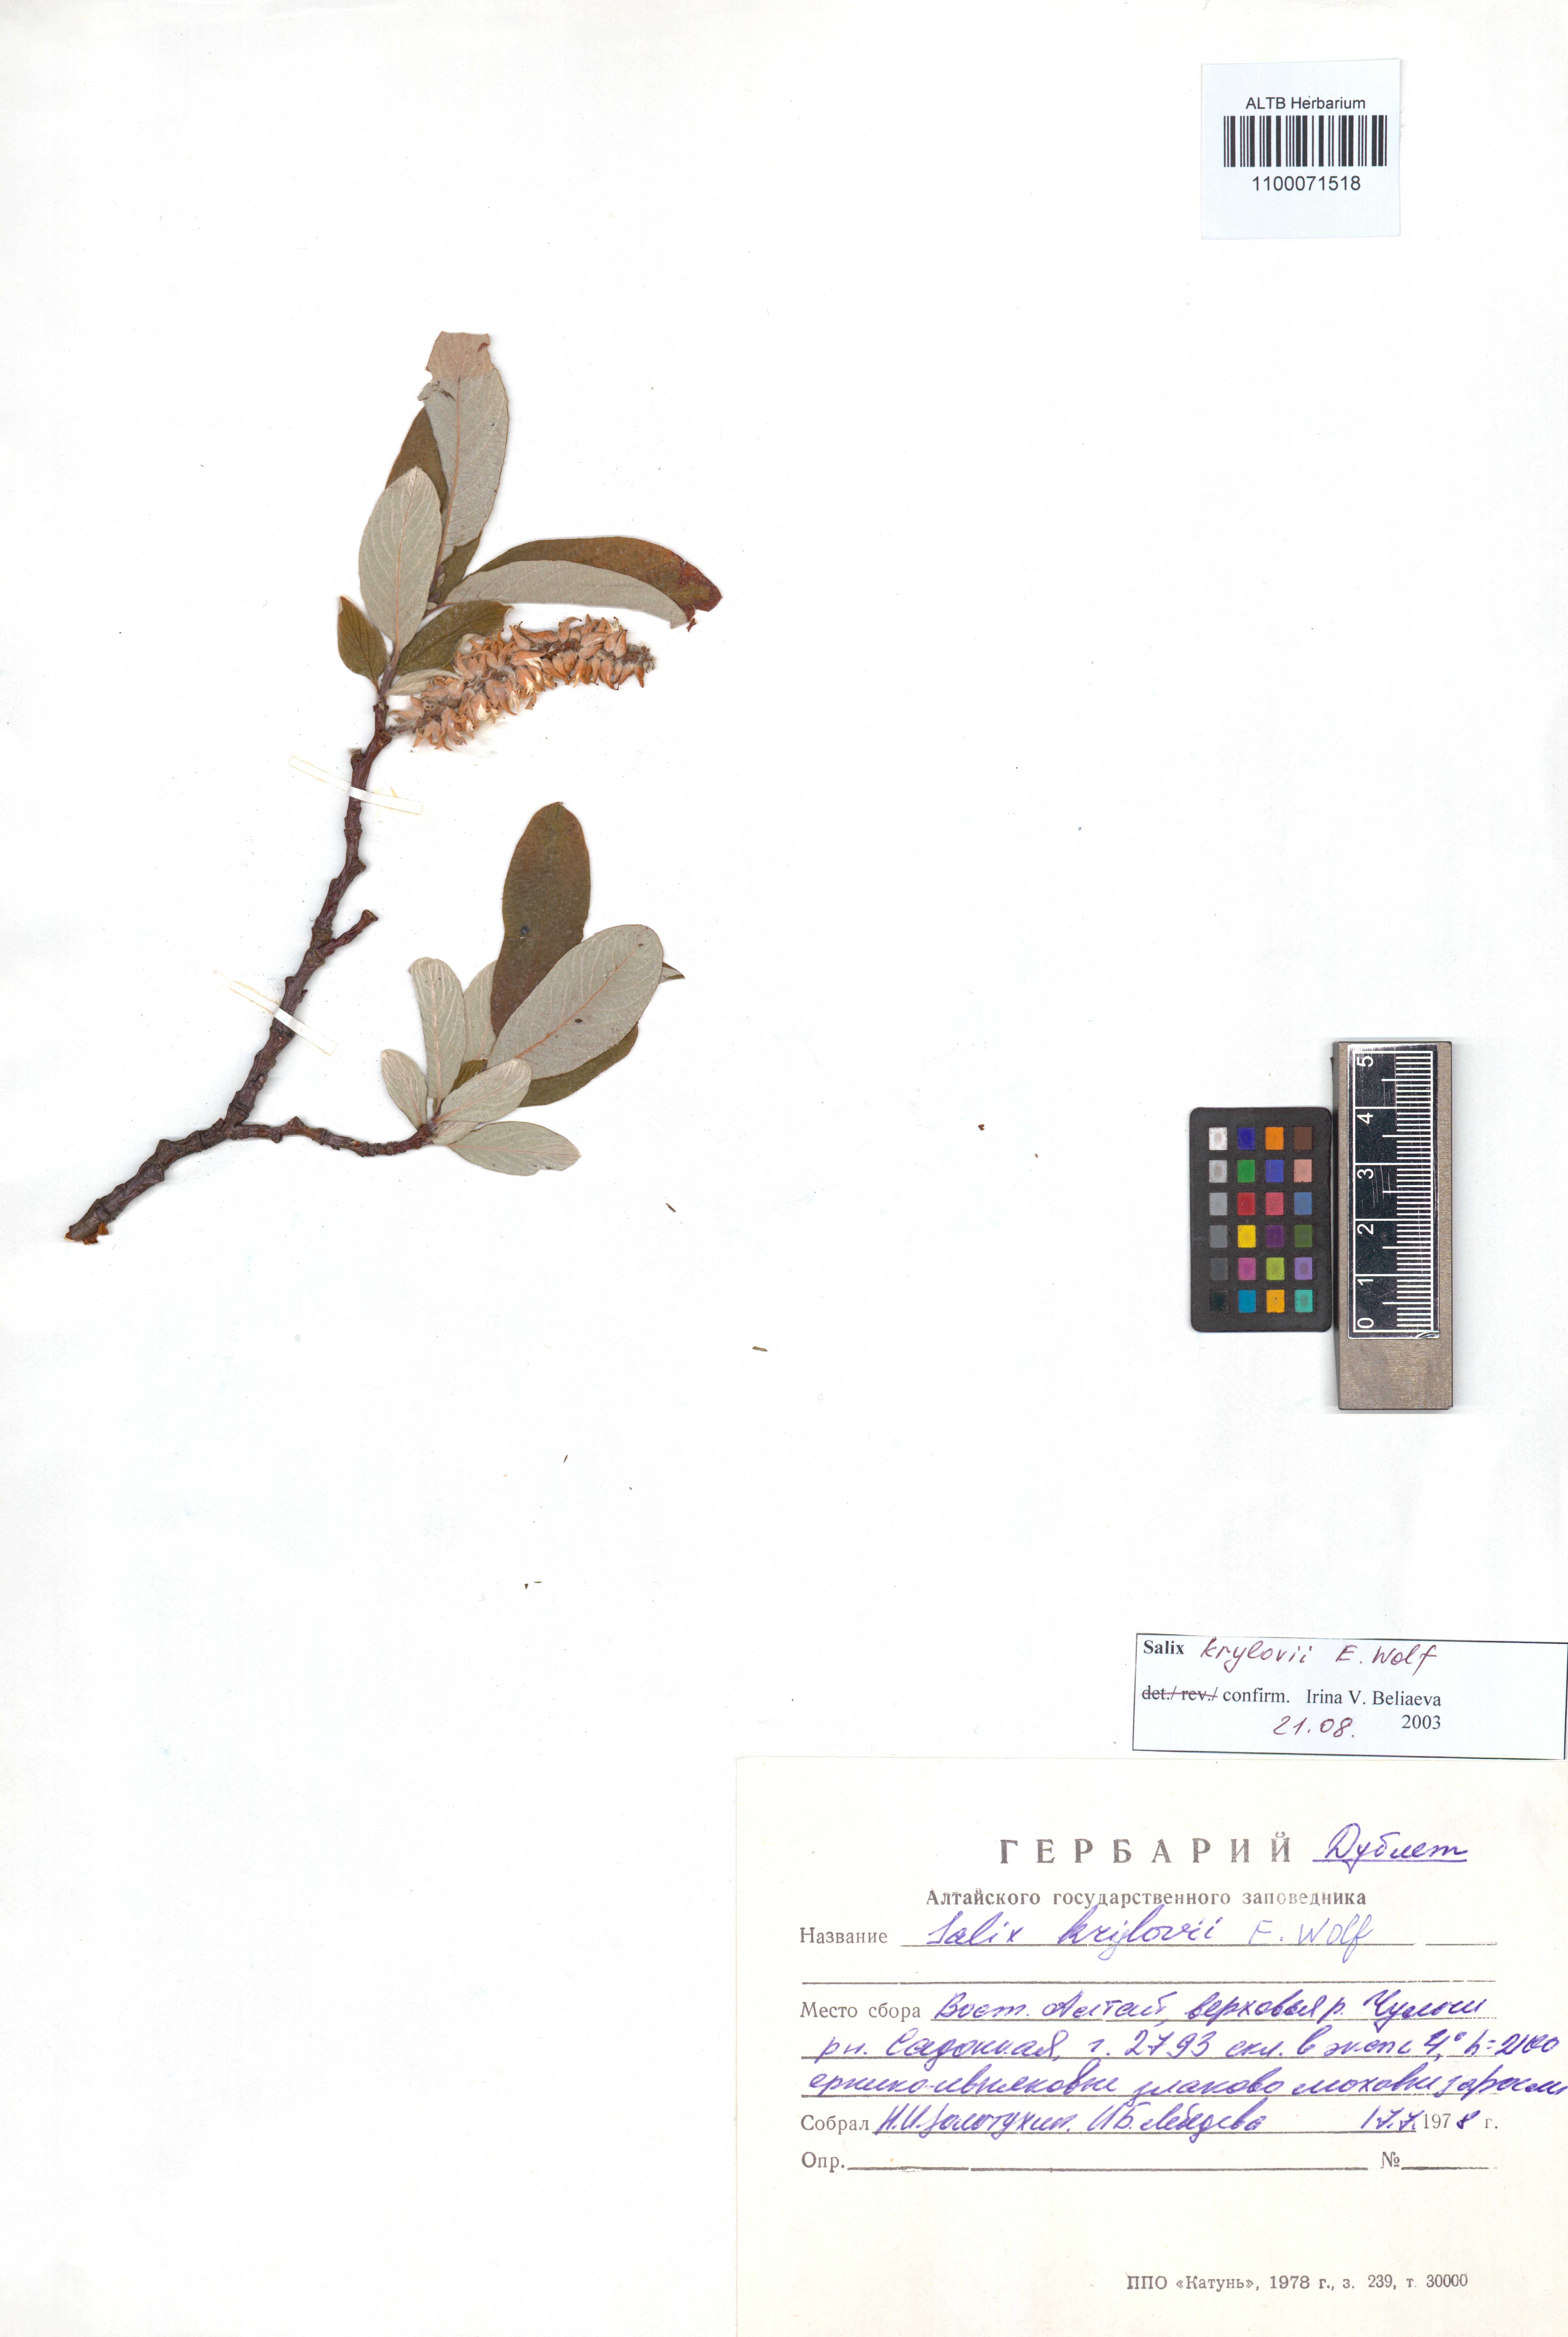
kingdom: Plantae
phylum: Tracheophyta
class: Magnoliopsida
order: Malpighiales
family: Salicaceae
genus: Salix
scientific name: Salix krylovii
